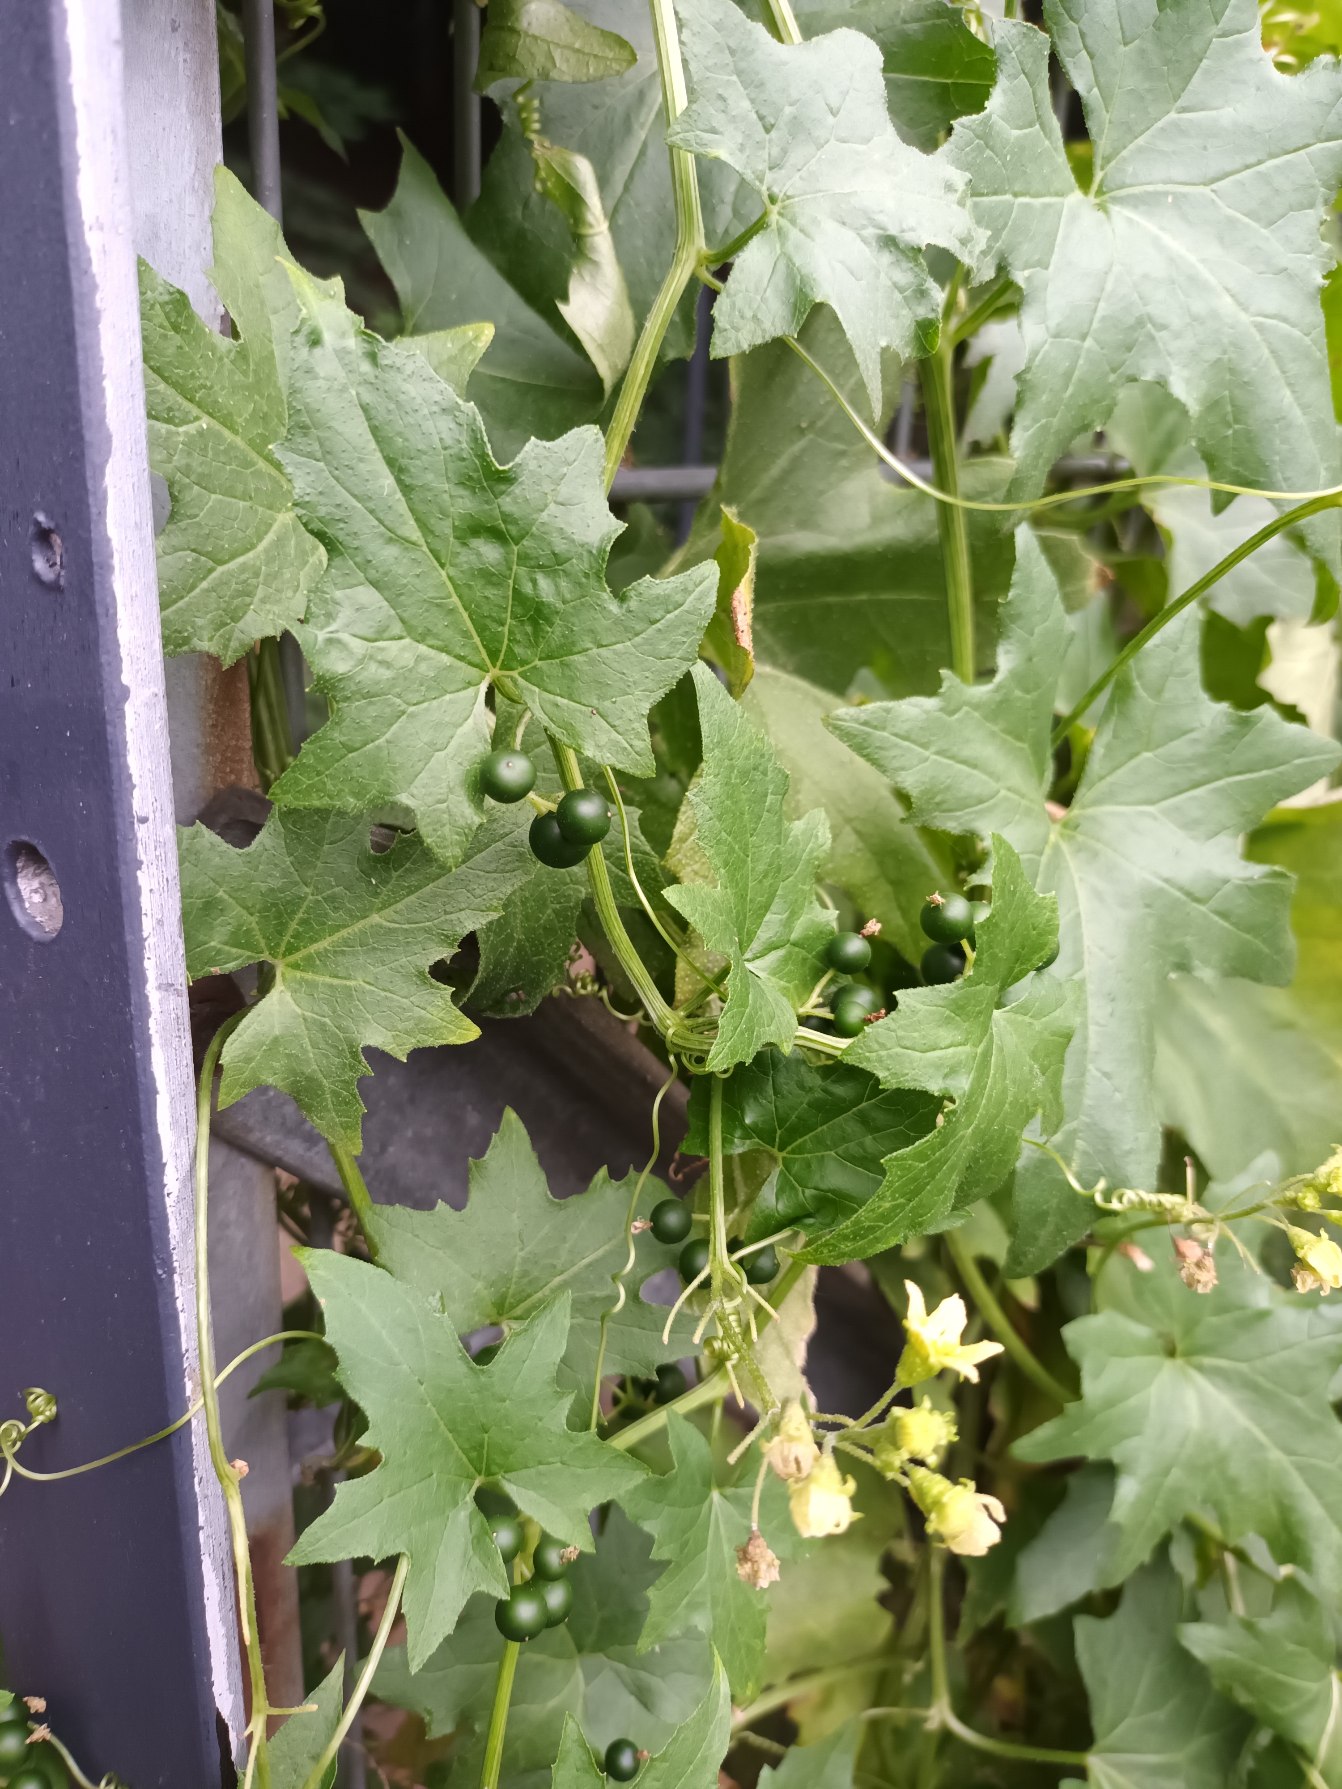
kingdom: Plantae
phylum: Tracheophyta
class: Magnoliopsida
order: Cucurbitales
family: Cucurbitaceae
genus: Bryonia
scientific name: Bryonia alba
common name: Enbo galdebær
